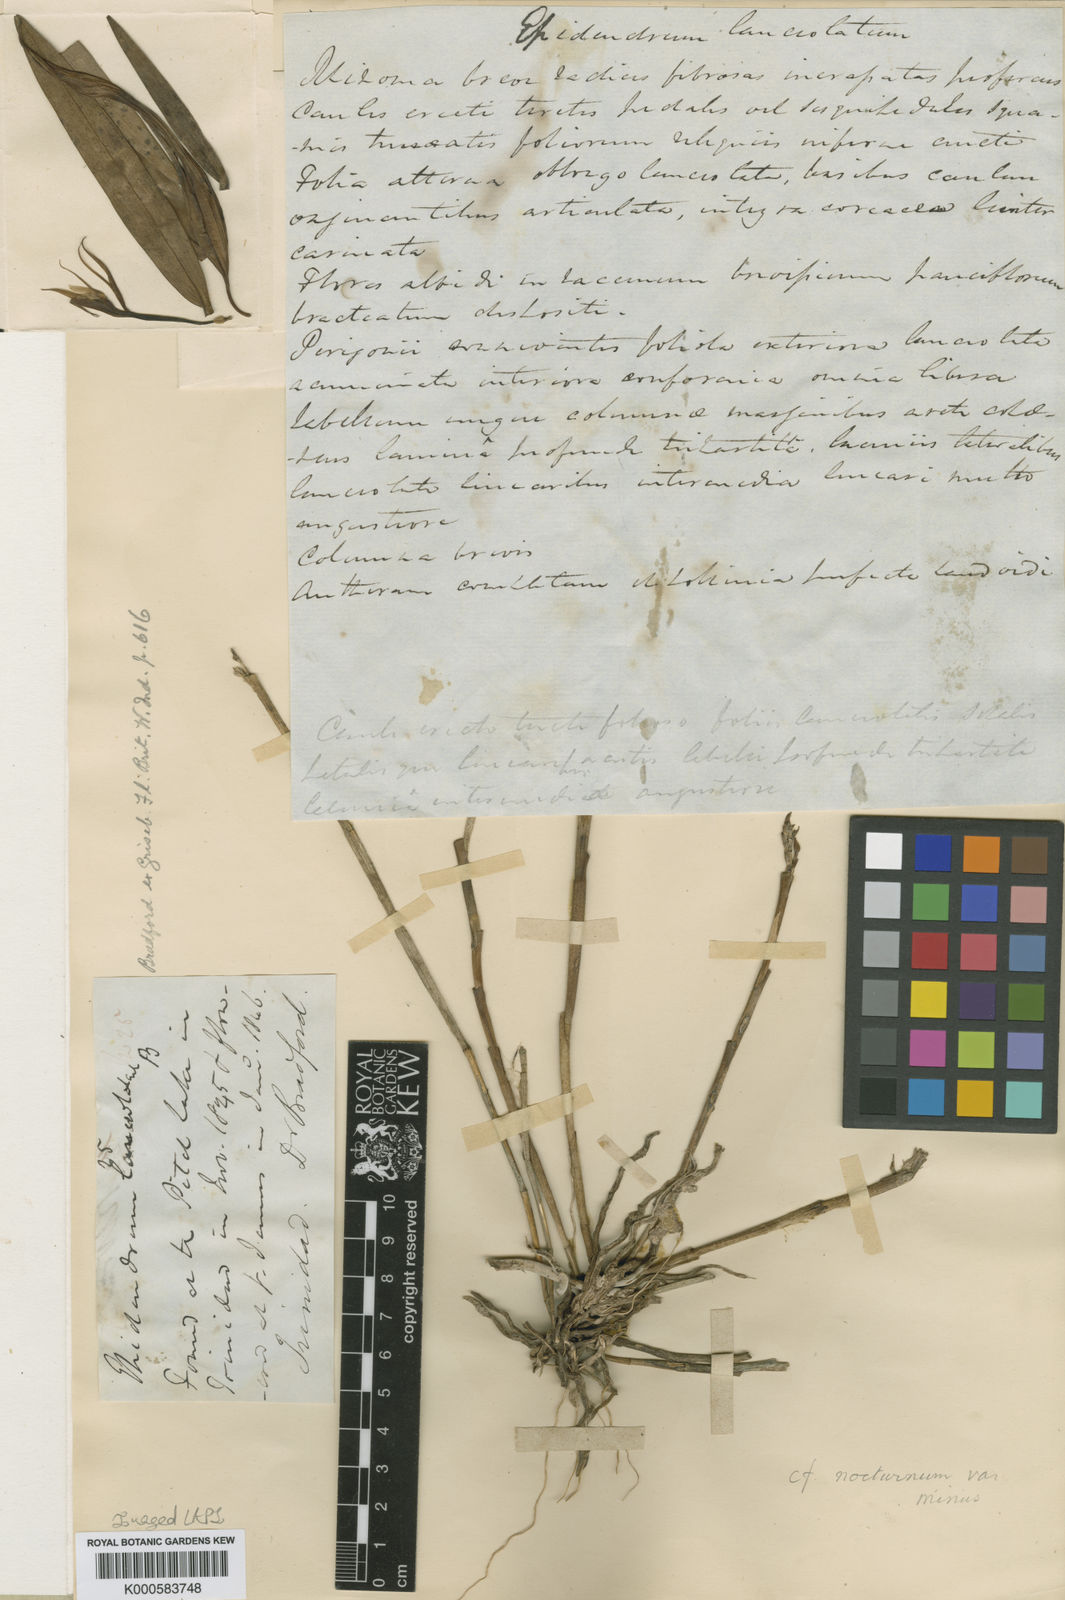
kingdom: Plantae
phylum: Tracheophyta
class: Liliopsida
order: Asparagales
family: Orchidaceae
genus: Epidendrum
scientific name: Epidendrum longicolle
